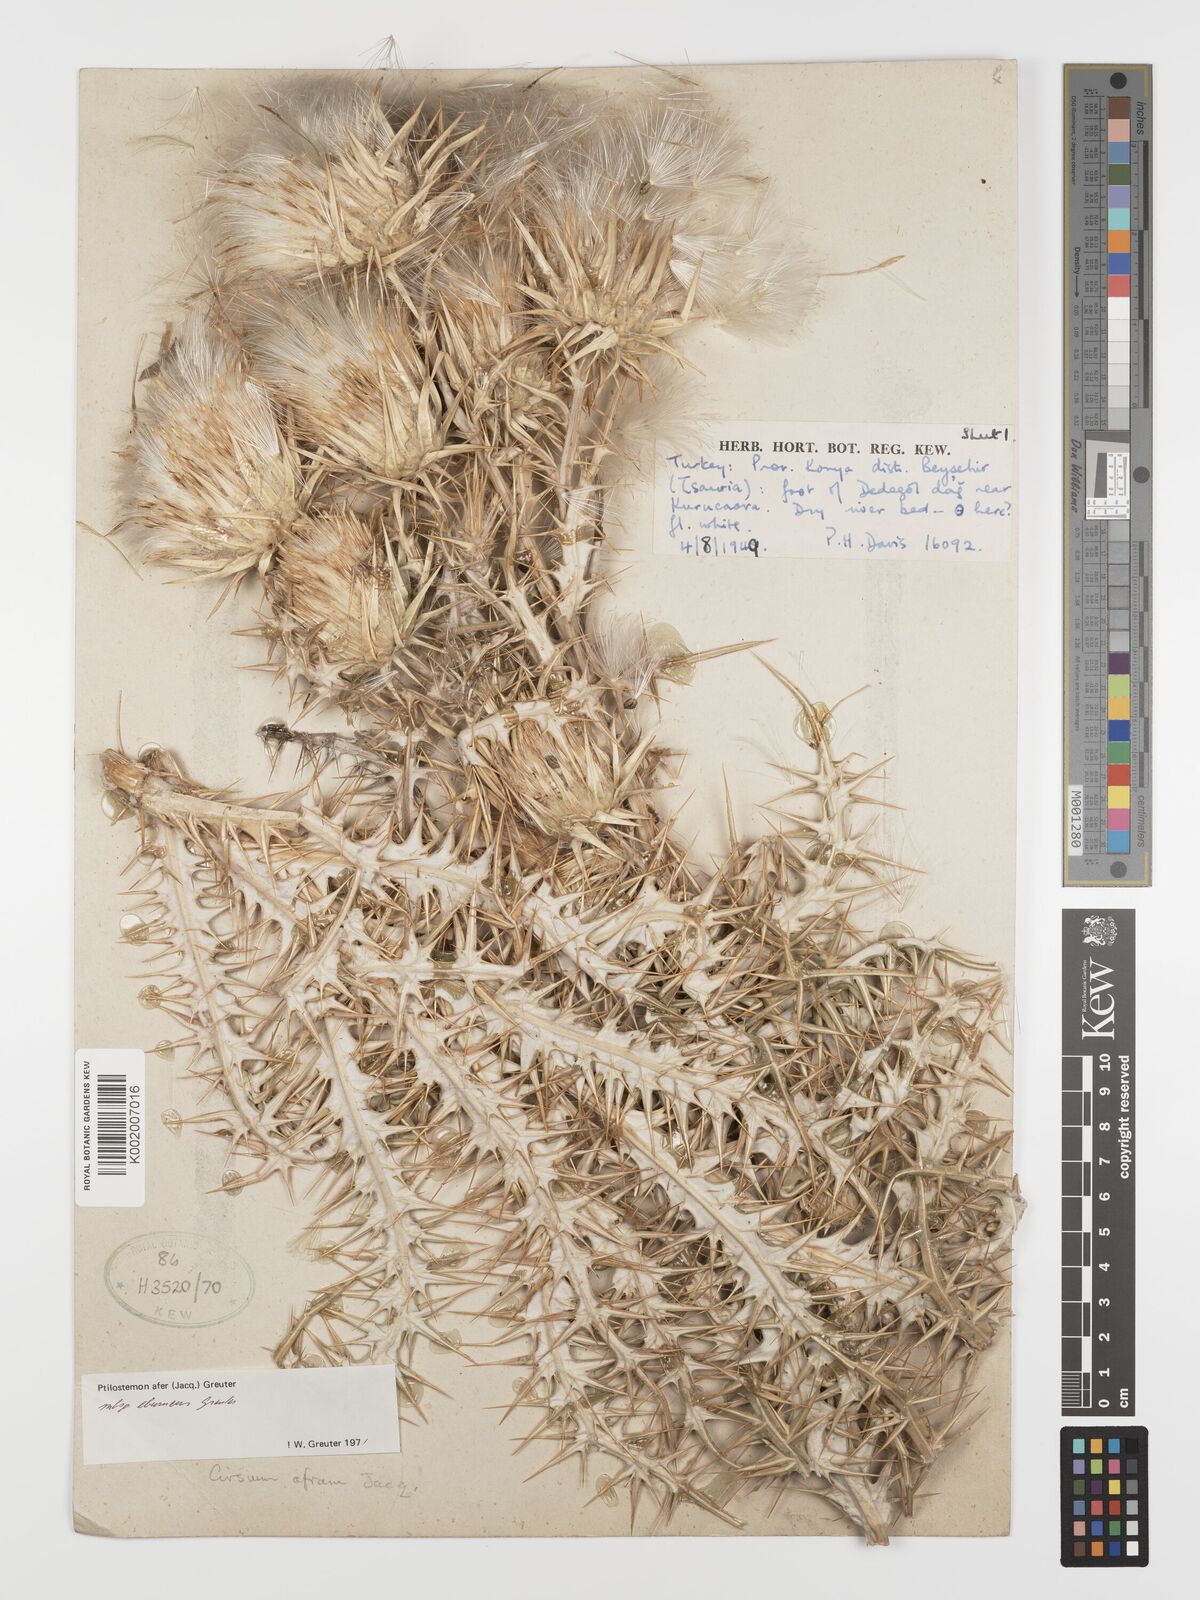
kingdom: Plantae
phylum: Tracheophyta
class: Magnoliopsida
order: Asterales
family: Asteraceae
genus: Ptilostemon
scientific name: Ptilostemon afer
